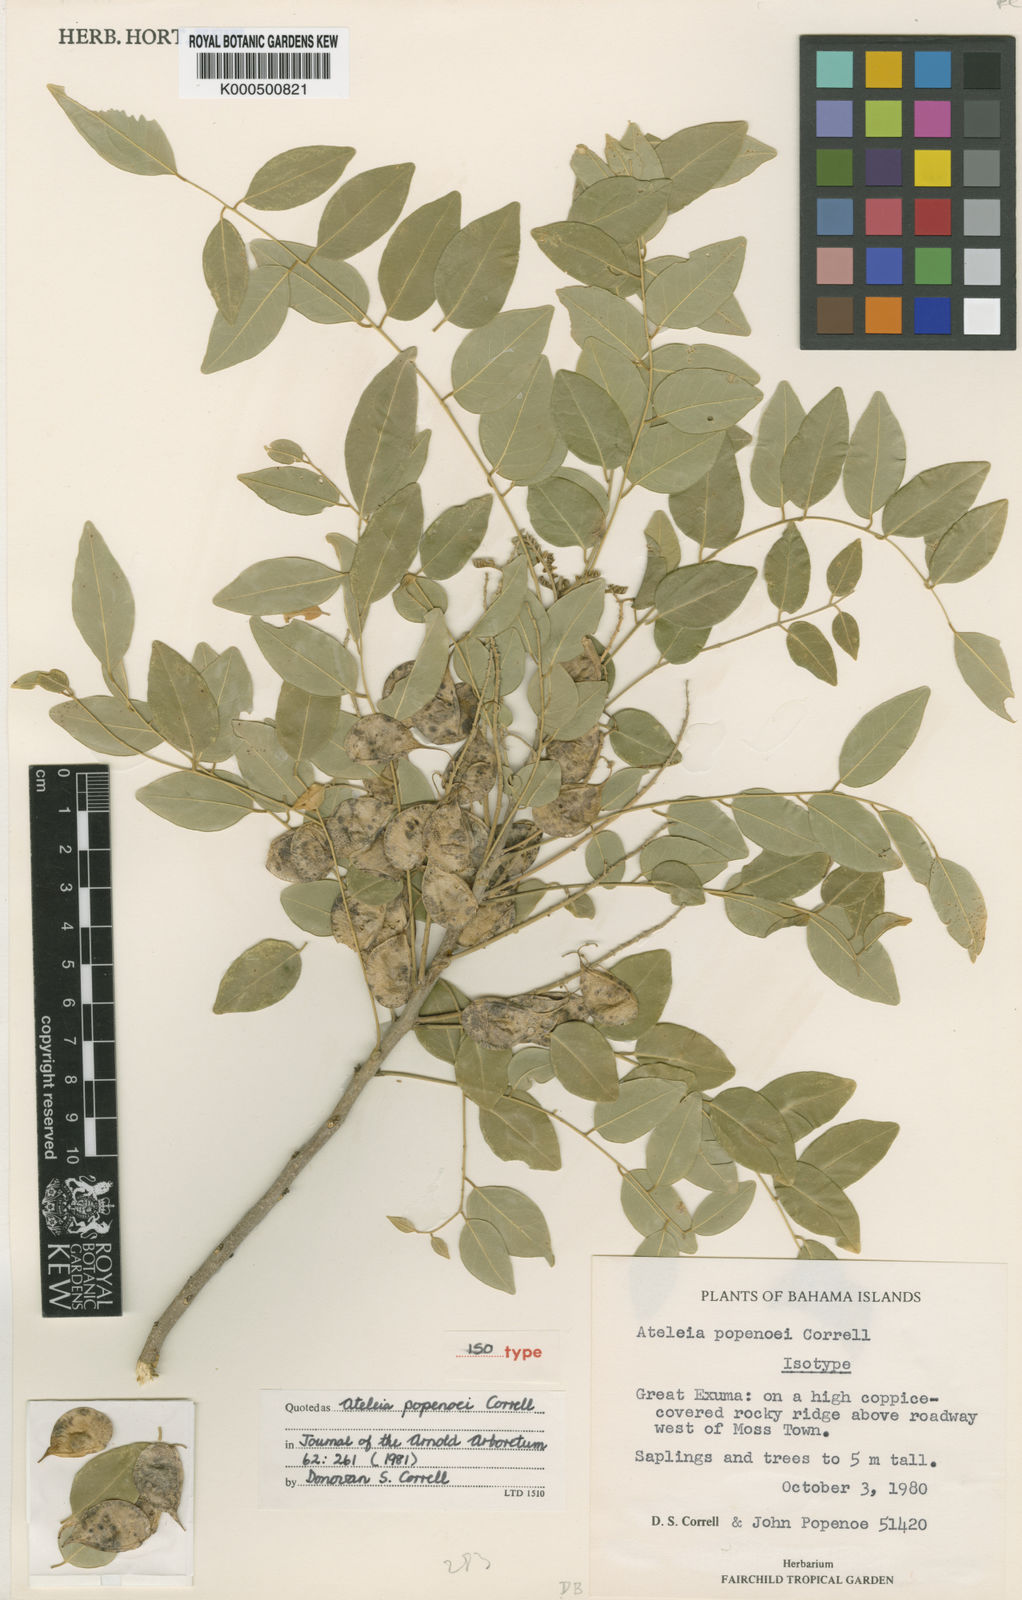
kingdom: Plantae
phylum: Tracheophyta
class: Magnoliopsida
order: Fabales
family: Fabaceae
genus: Ateleia
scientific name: Ateleia popenoei
